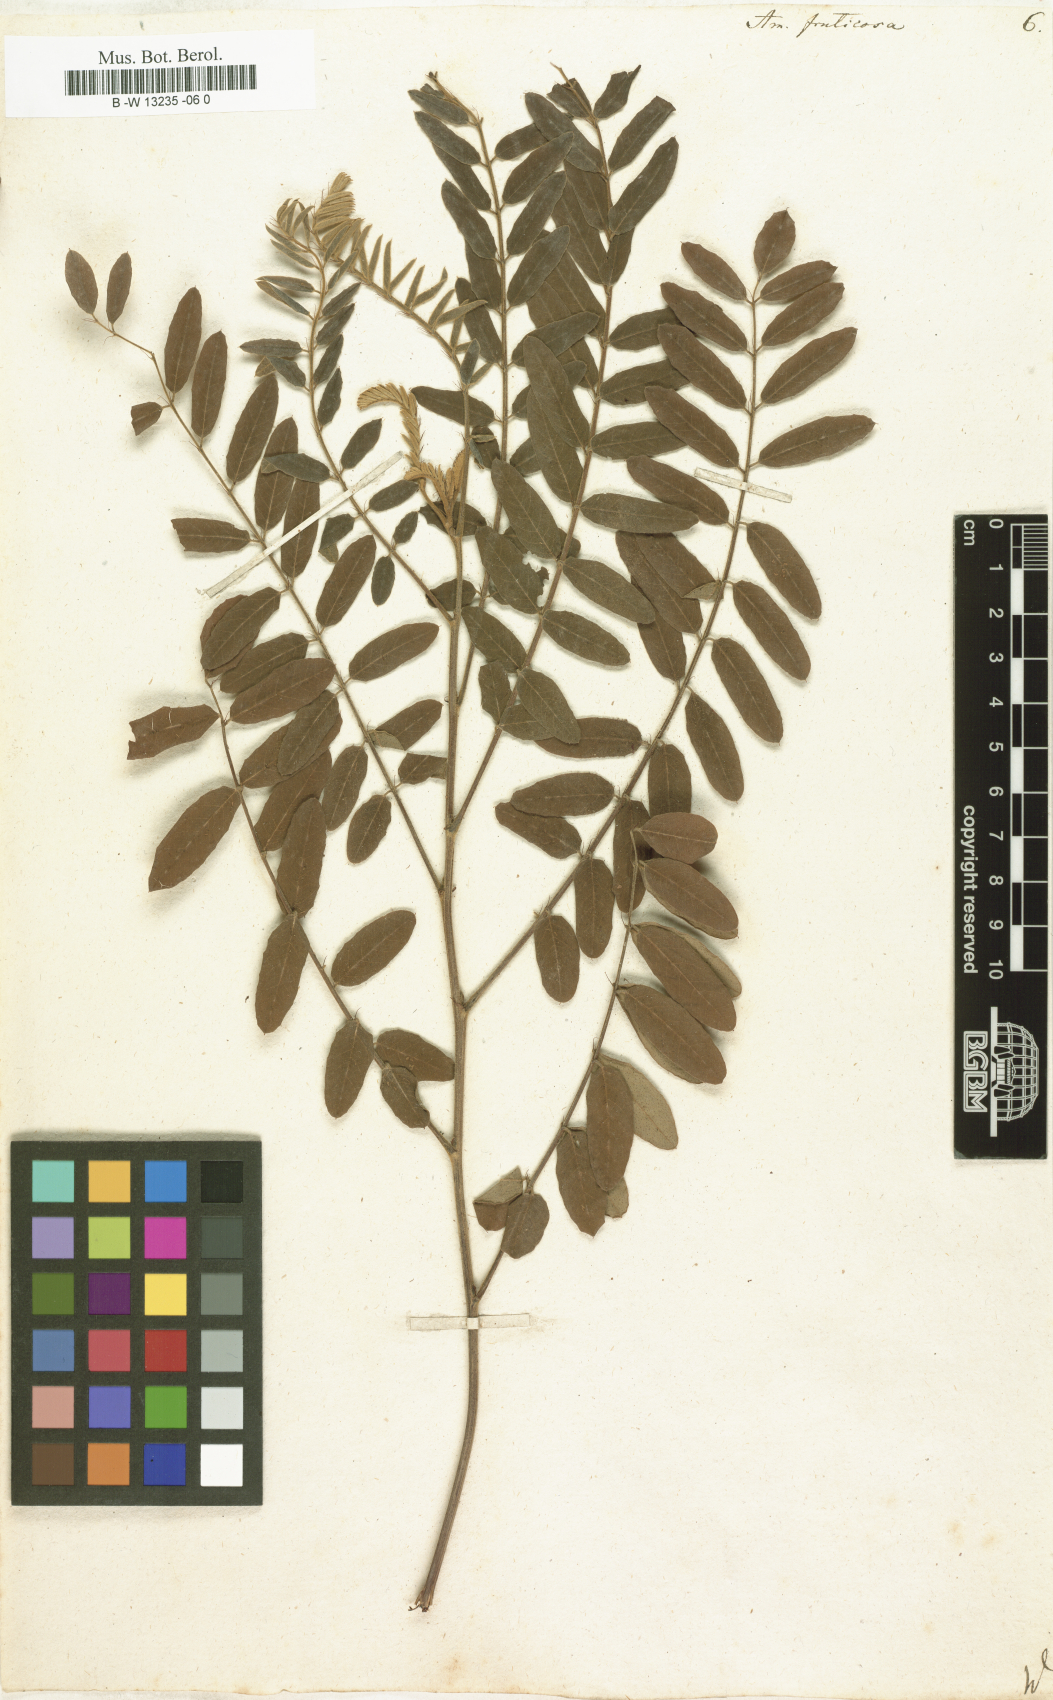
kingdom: Plantae
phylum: Tracheophyta
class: Magnoliopsida
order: Fabales
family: Fabaceae
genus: Amorpha
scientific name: Amorpha fruticosa
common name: False indigo
